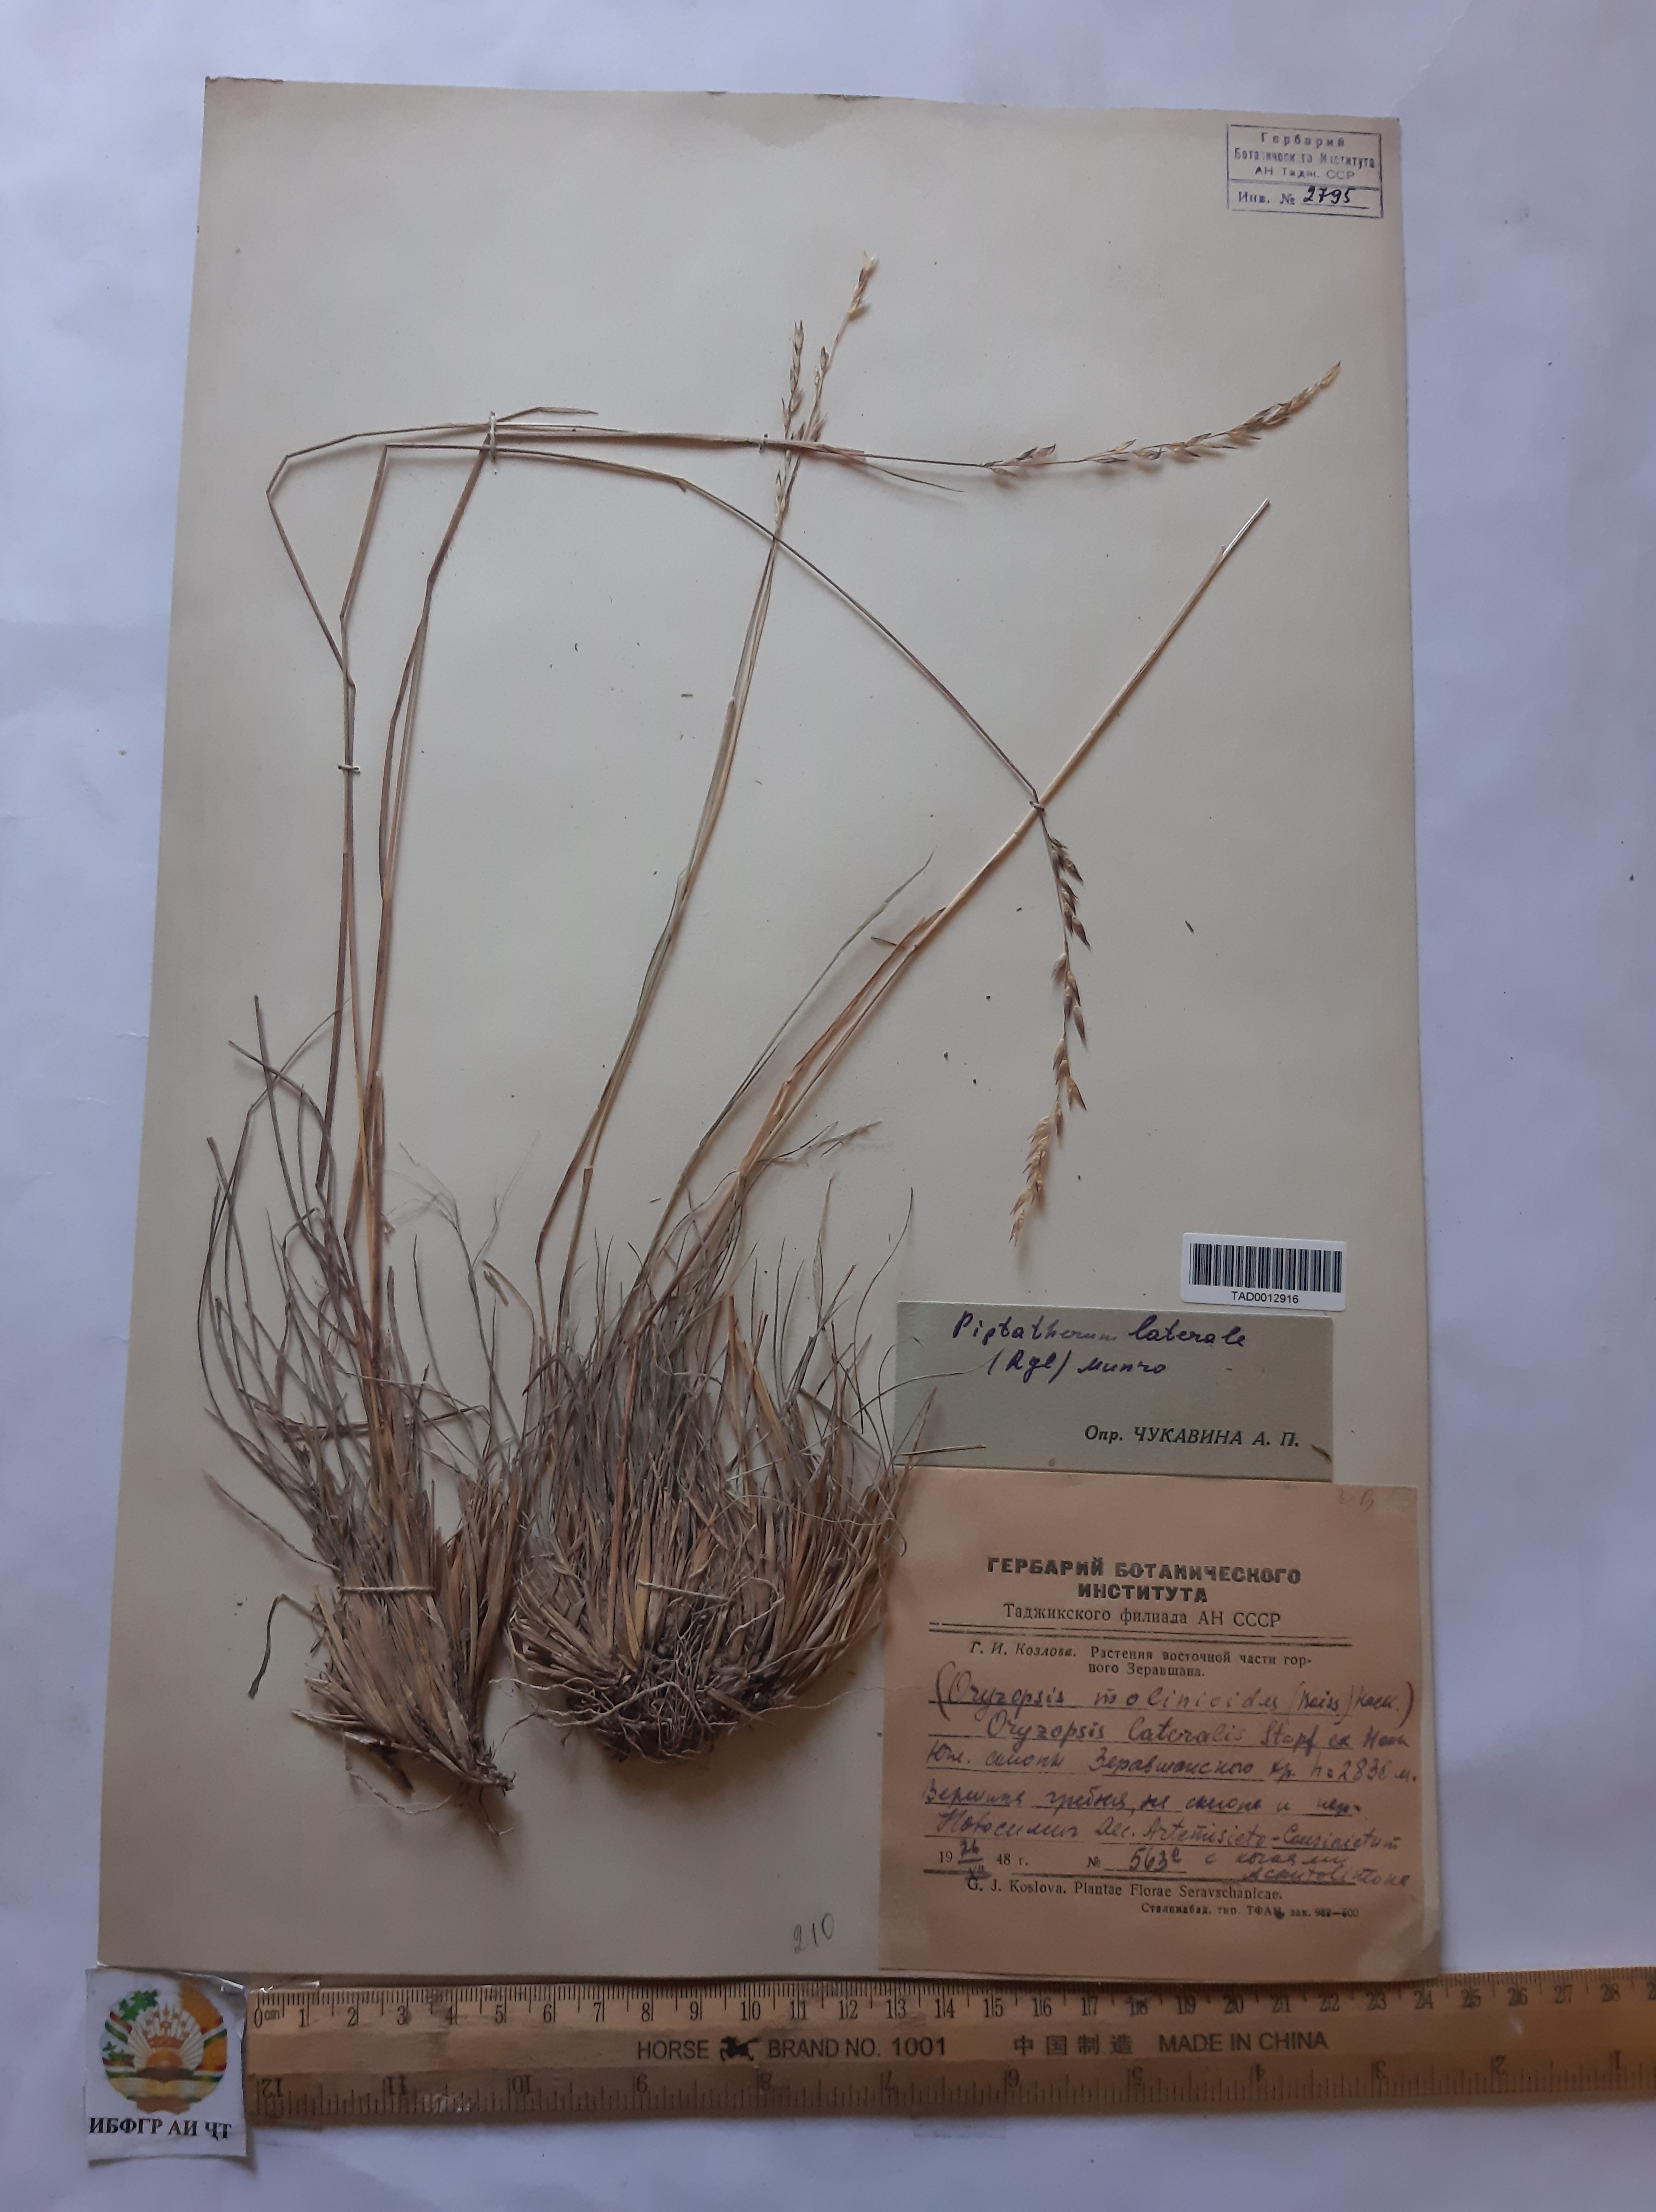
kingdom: Plantae
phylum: Tracheophyta
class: Liliopsida
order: Poales
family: Poaceae
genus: Piptatherum
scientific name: Piptatherum laterale
